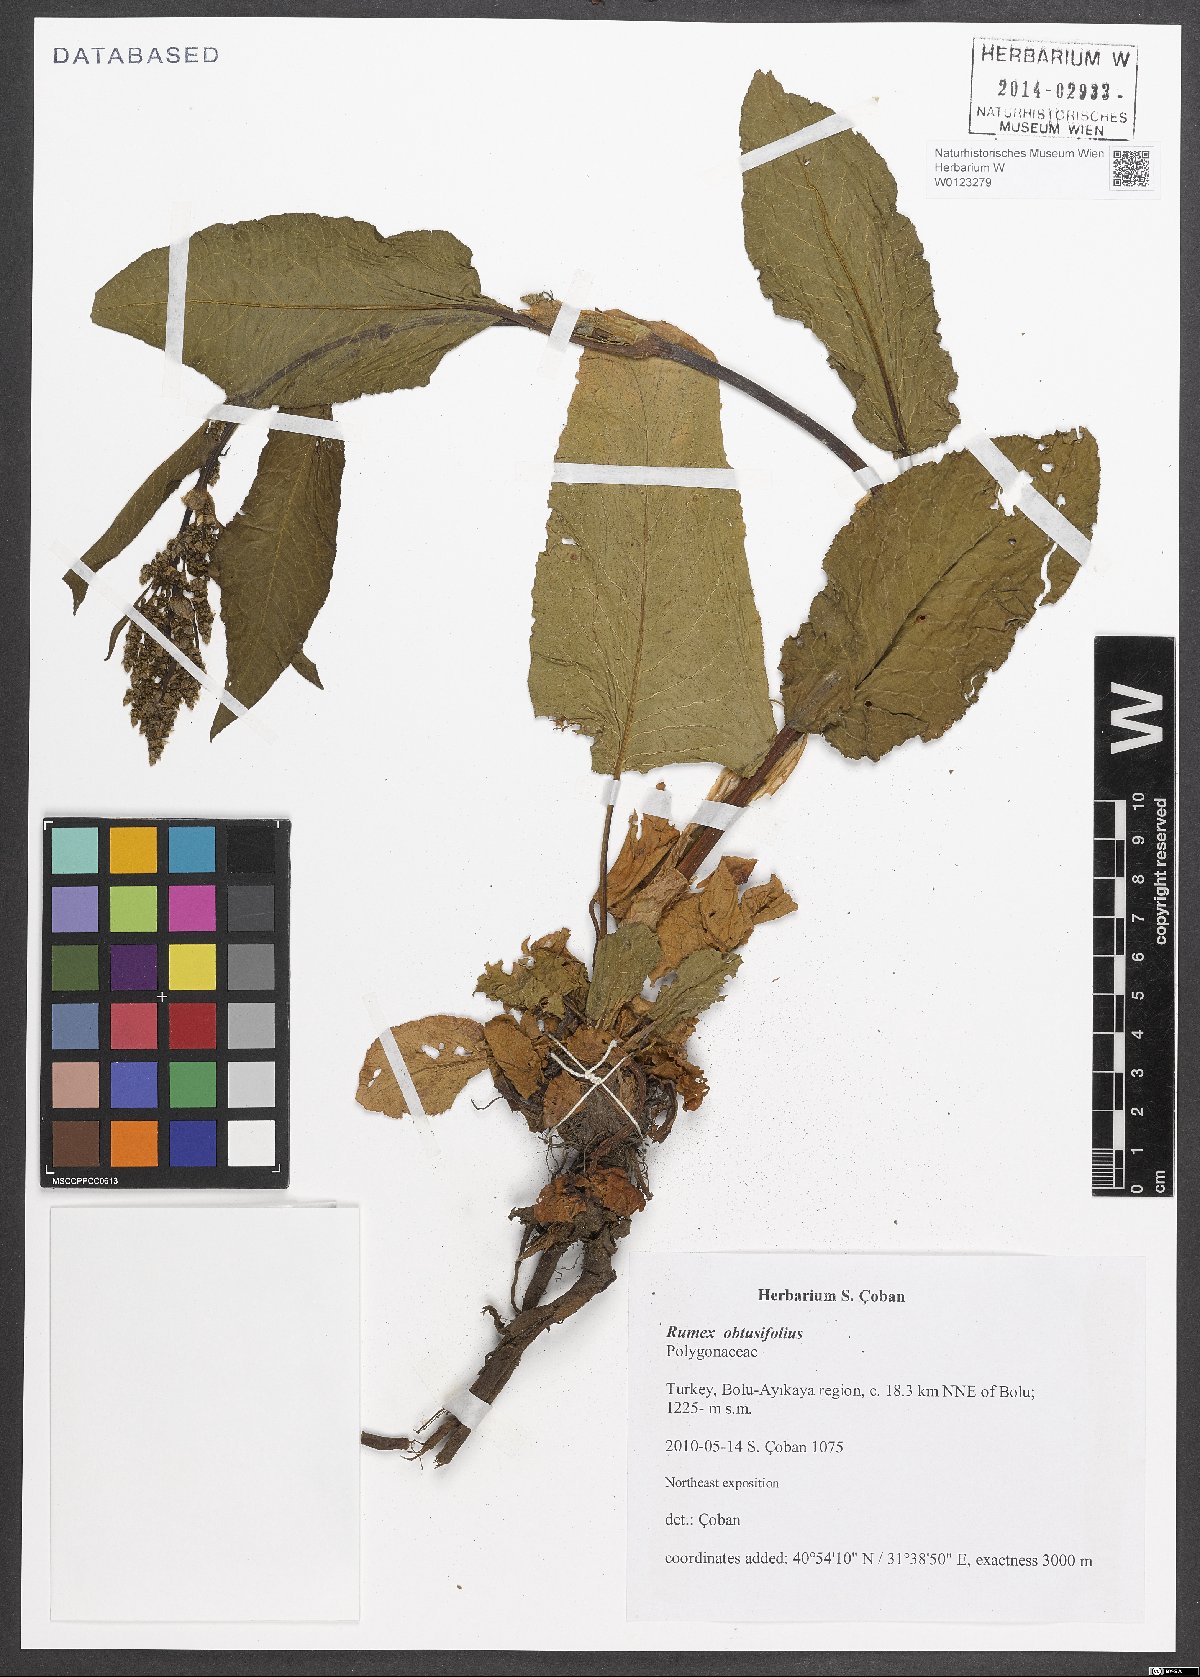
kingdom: Plantae
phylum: Tracheophyta
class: Magnoliopsida
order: Caryophyllales
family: Polygonaceae
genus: Rumex
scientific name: Rumex obtusifolius
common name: Bitter dock
